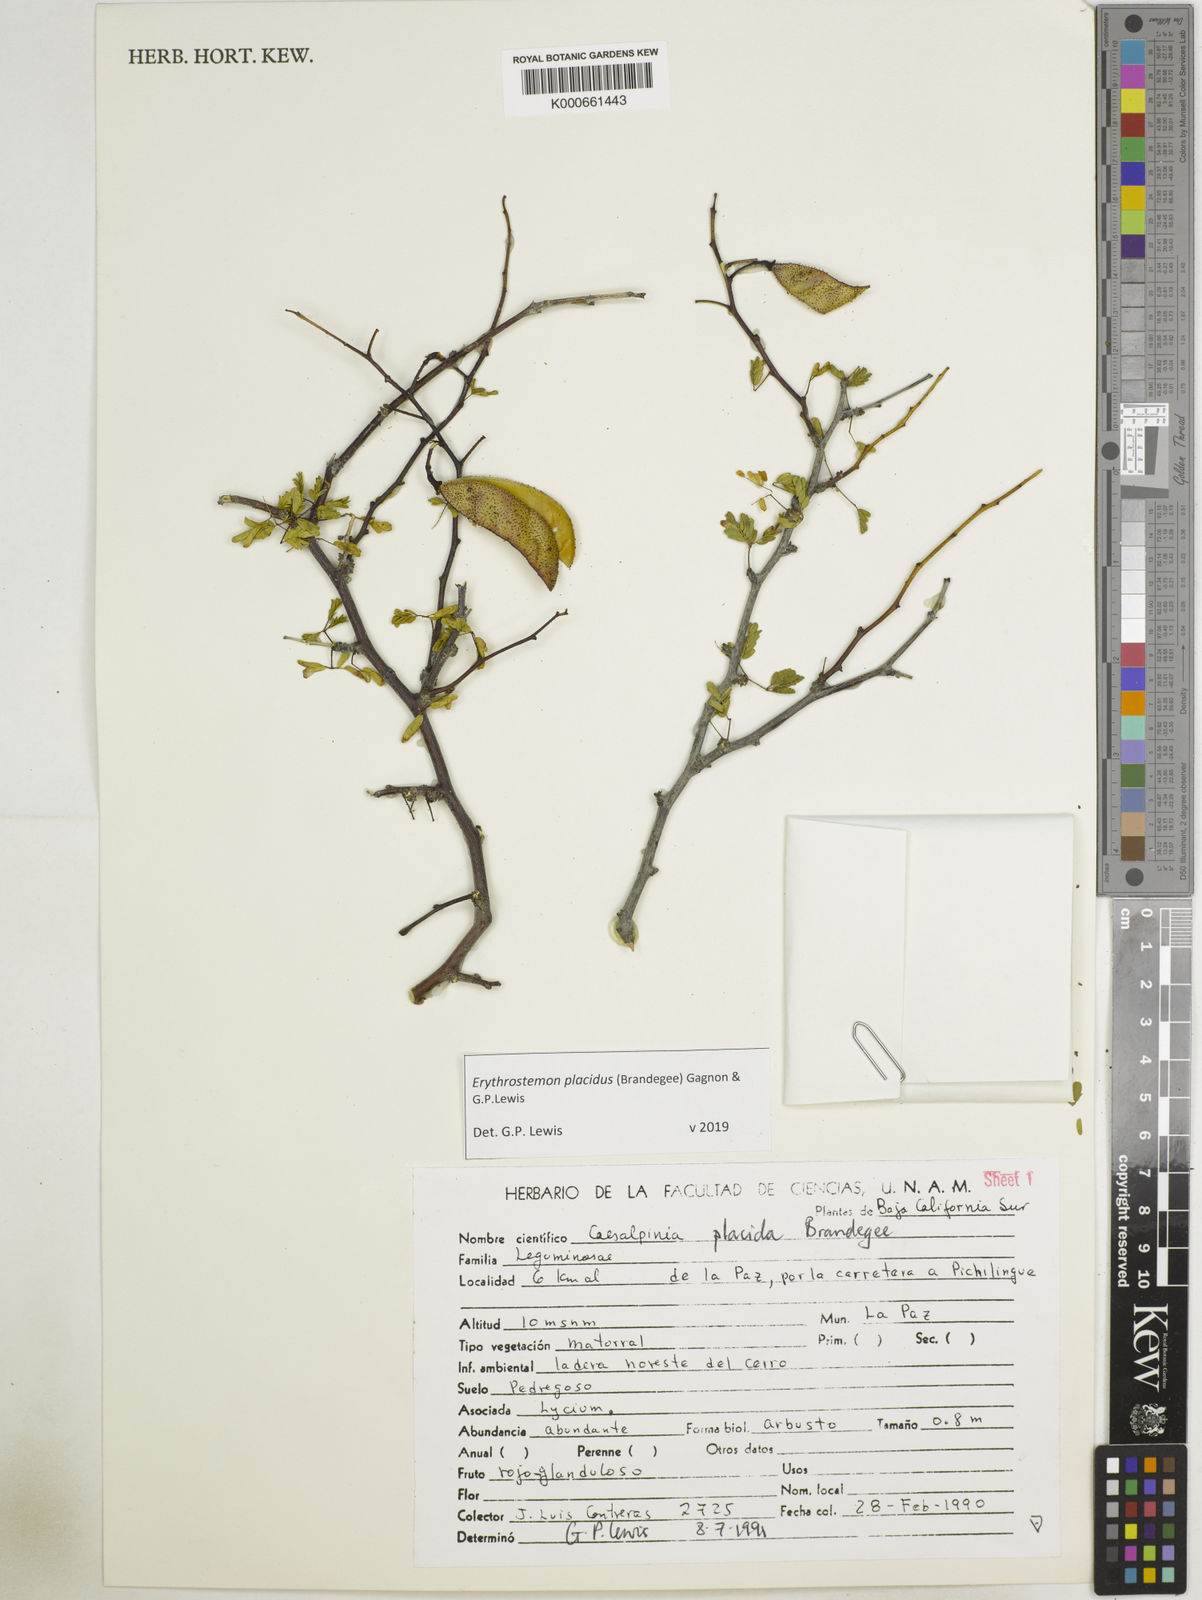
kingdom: Plantae
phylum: Tracheophyta
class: Magnoliopsida
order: Fabales
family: Fabaceae
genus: Erythrostemon
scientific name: Erythrostemon placidus
